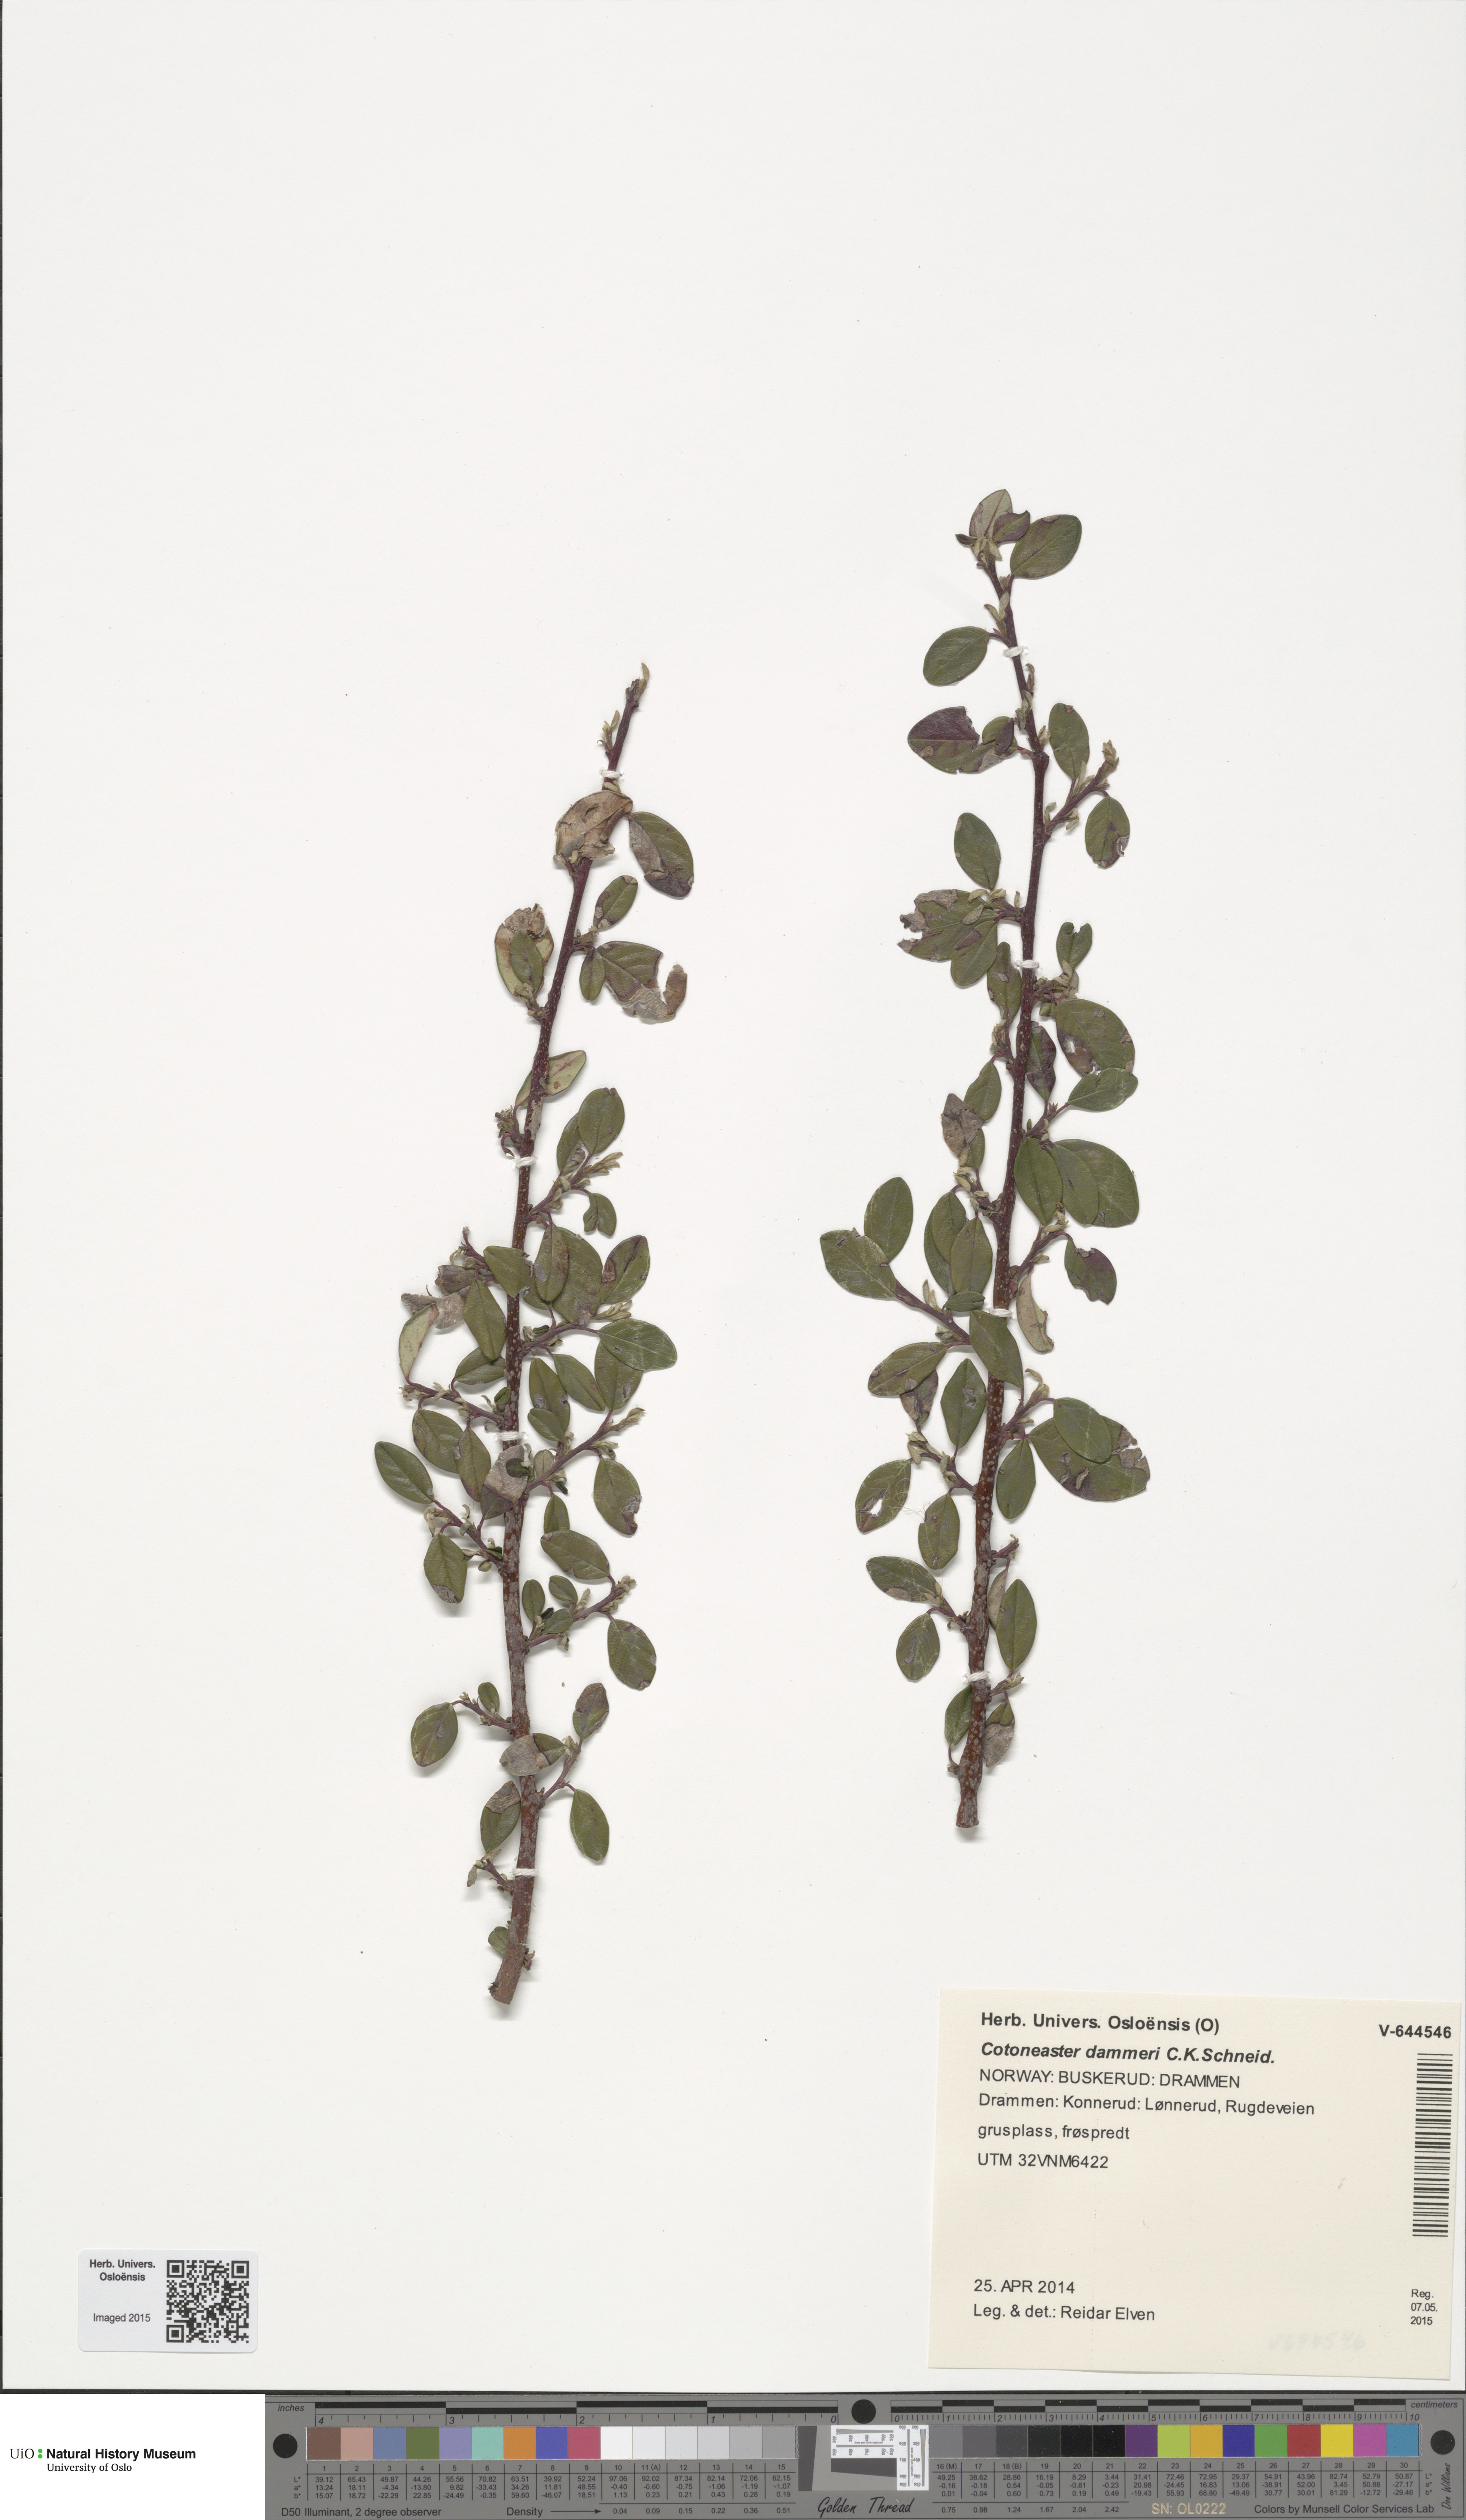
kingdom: Plantae
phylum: Tracheophyta
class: Magnoliopsida
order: Rosales
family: Rosaceae
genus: Cotoneaster
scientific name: Cotoneaster dammeri
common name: Bearberry cotoneaster
